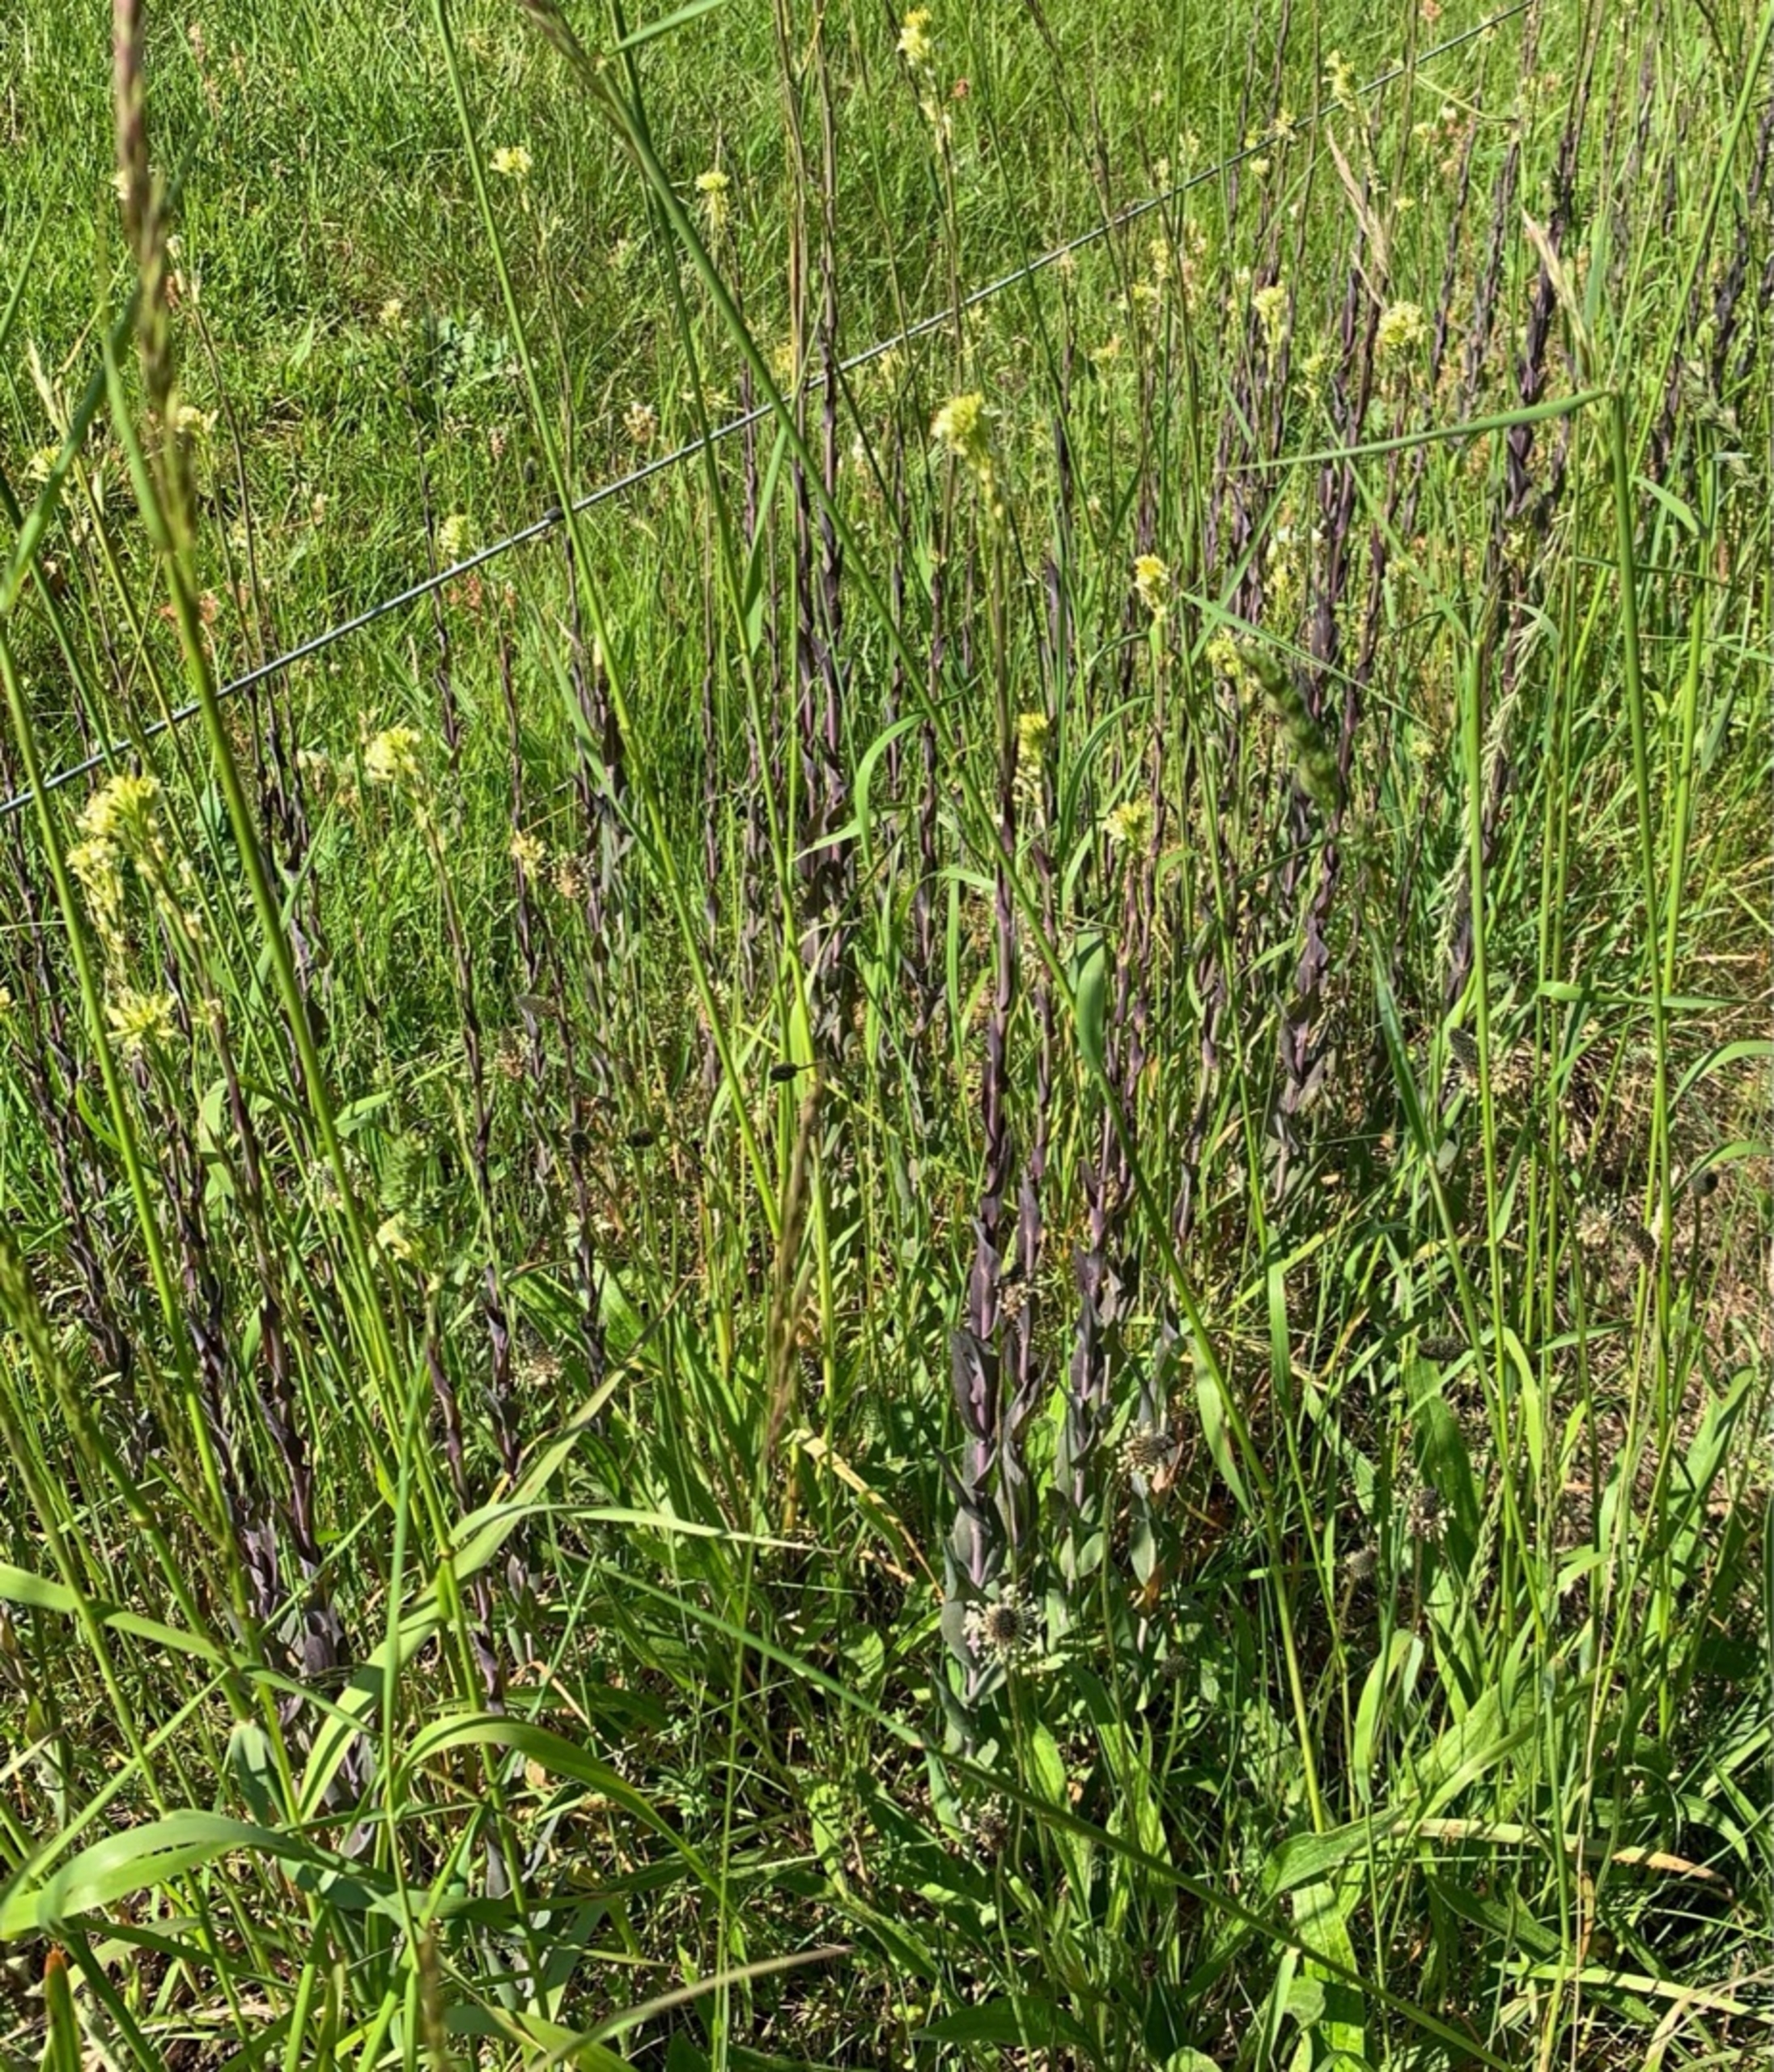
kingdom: Plantae
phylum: Tracheophyta
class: Magnoliopsida
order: Brassicales
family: Brassicaceae
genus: Turritis
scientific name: Turritis glabra
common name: Tårnurt
